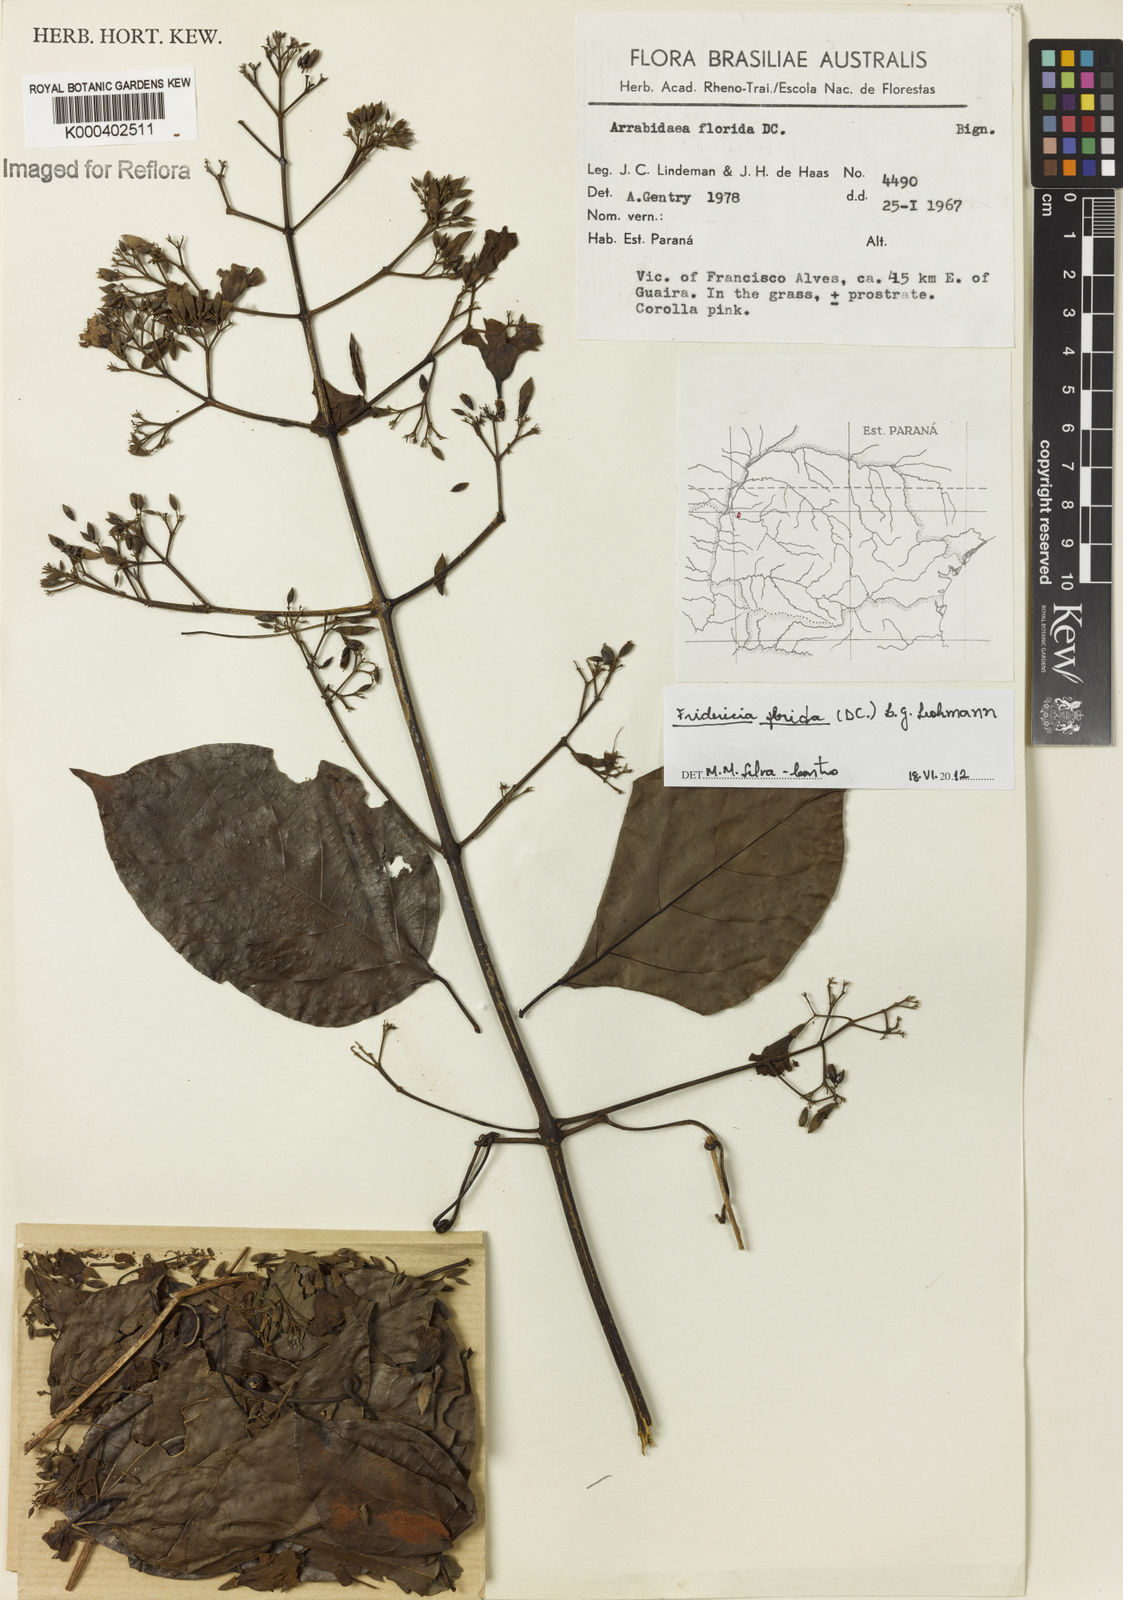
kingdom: Plantae
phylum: Tracheophyta
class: Magnoliopsida
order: Lamiales
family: Bignoniaceae
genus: Fridericia
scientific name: Fridericia florida
